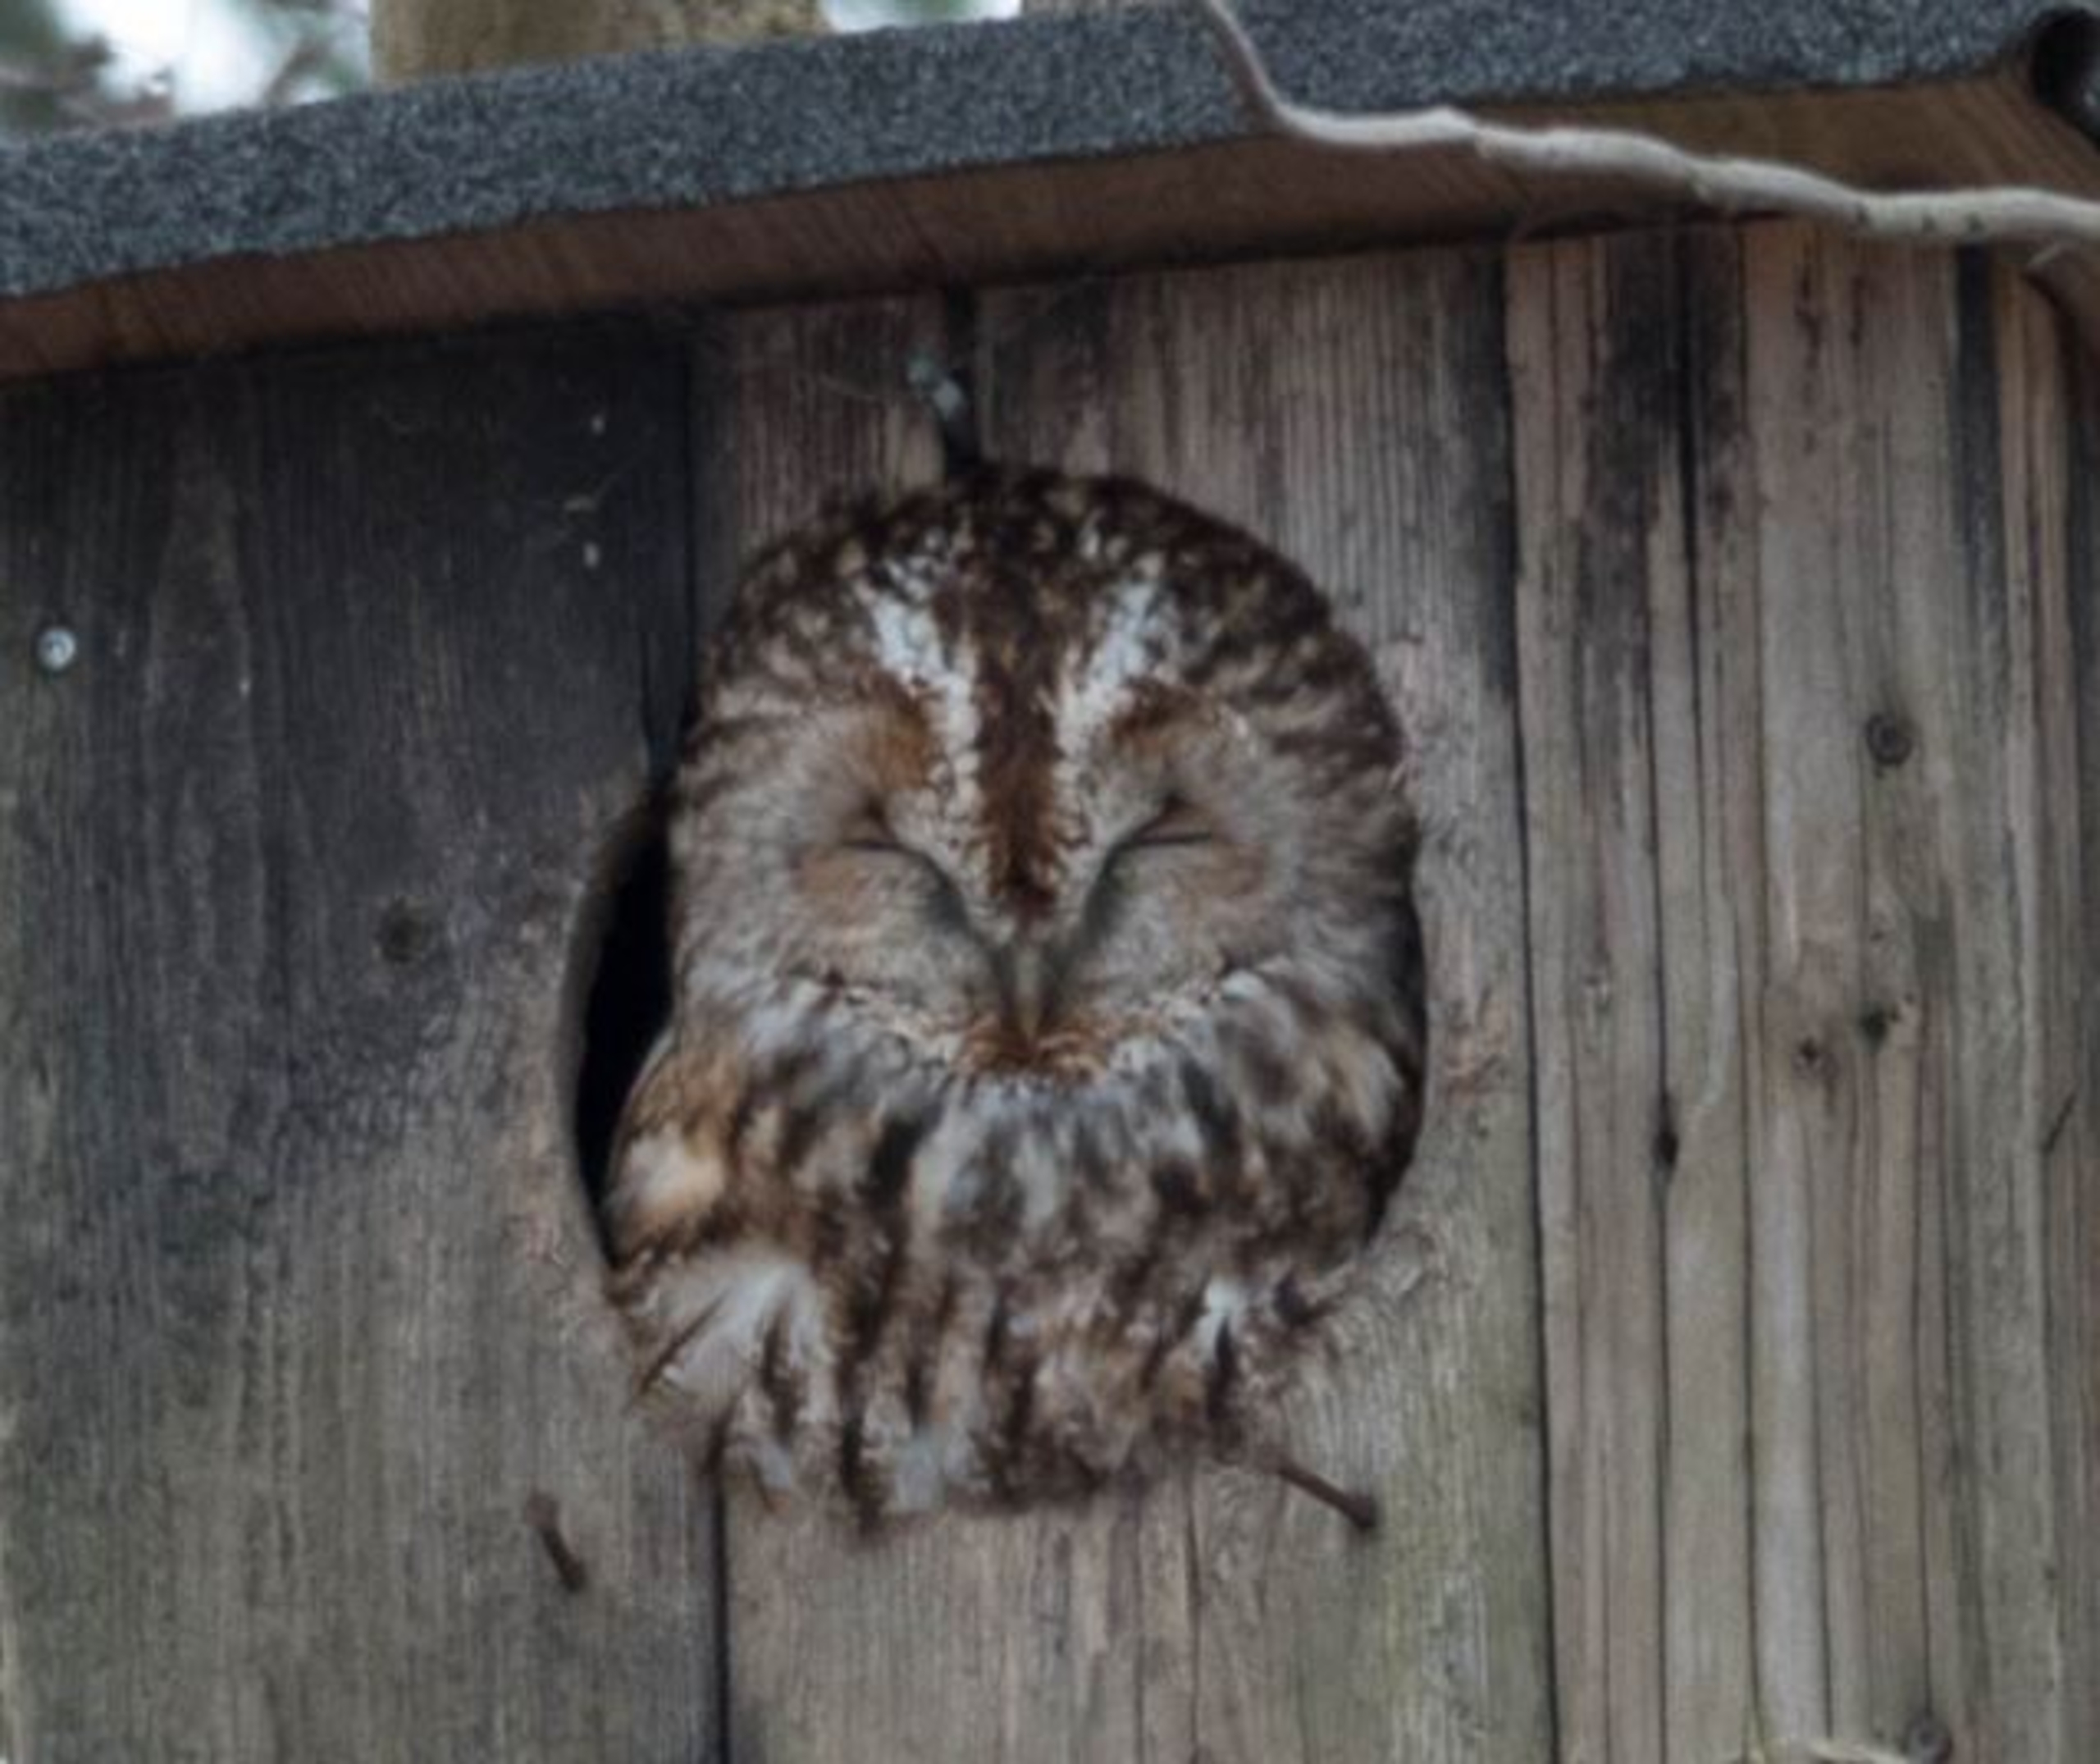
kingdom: Animalia
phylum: Chordata
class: Aves
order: Strigiformes
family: Strigidae
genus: Strix
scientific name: Strix aluco
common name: Natugle
